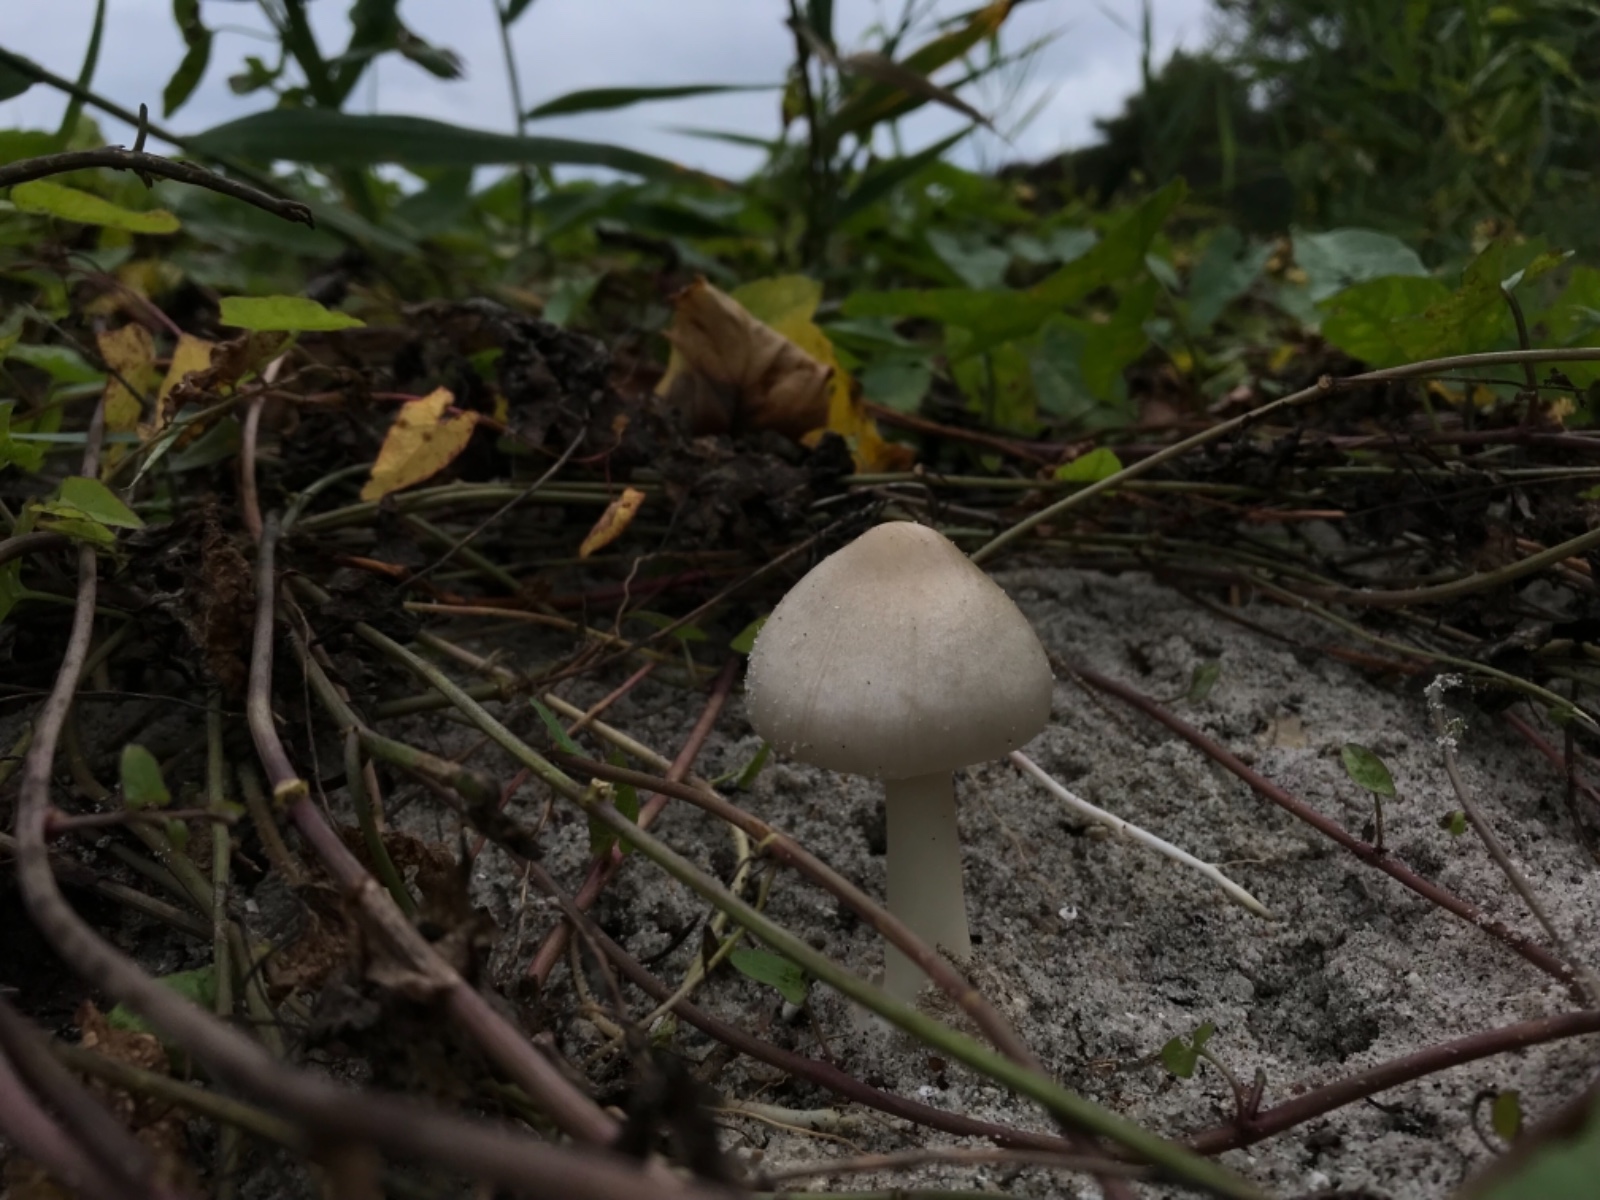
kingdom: Fungi
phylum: Basidiomycota
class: Agaricomycetes
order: Agaricales
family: Pluteaceae
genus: Volvopluteus
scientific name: Volvopluteus gloiocephalus
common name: høj posesvamp
